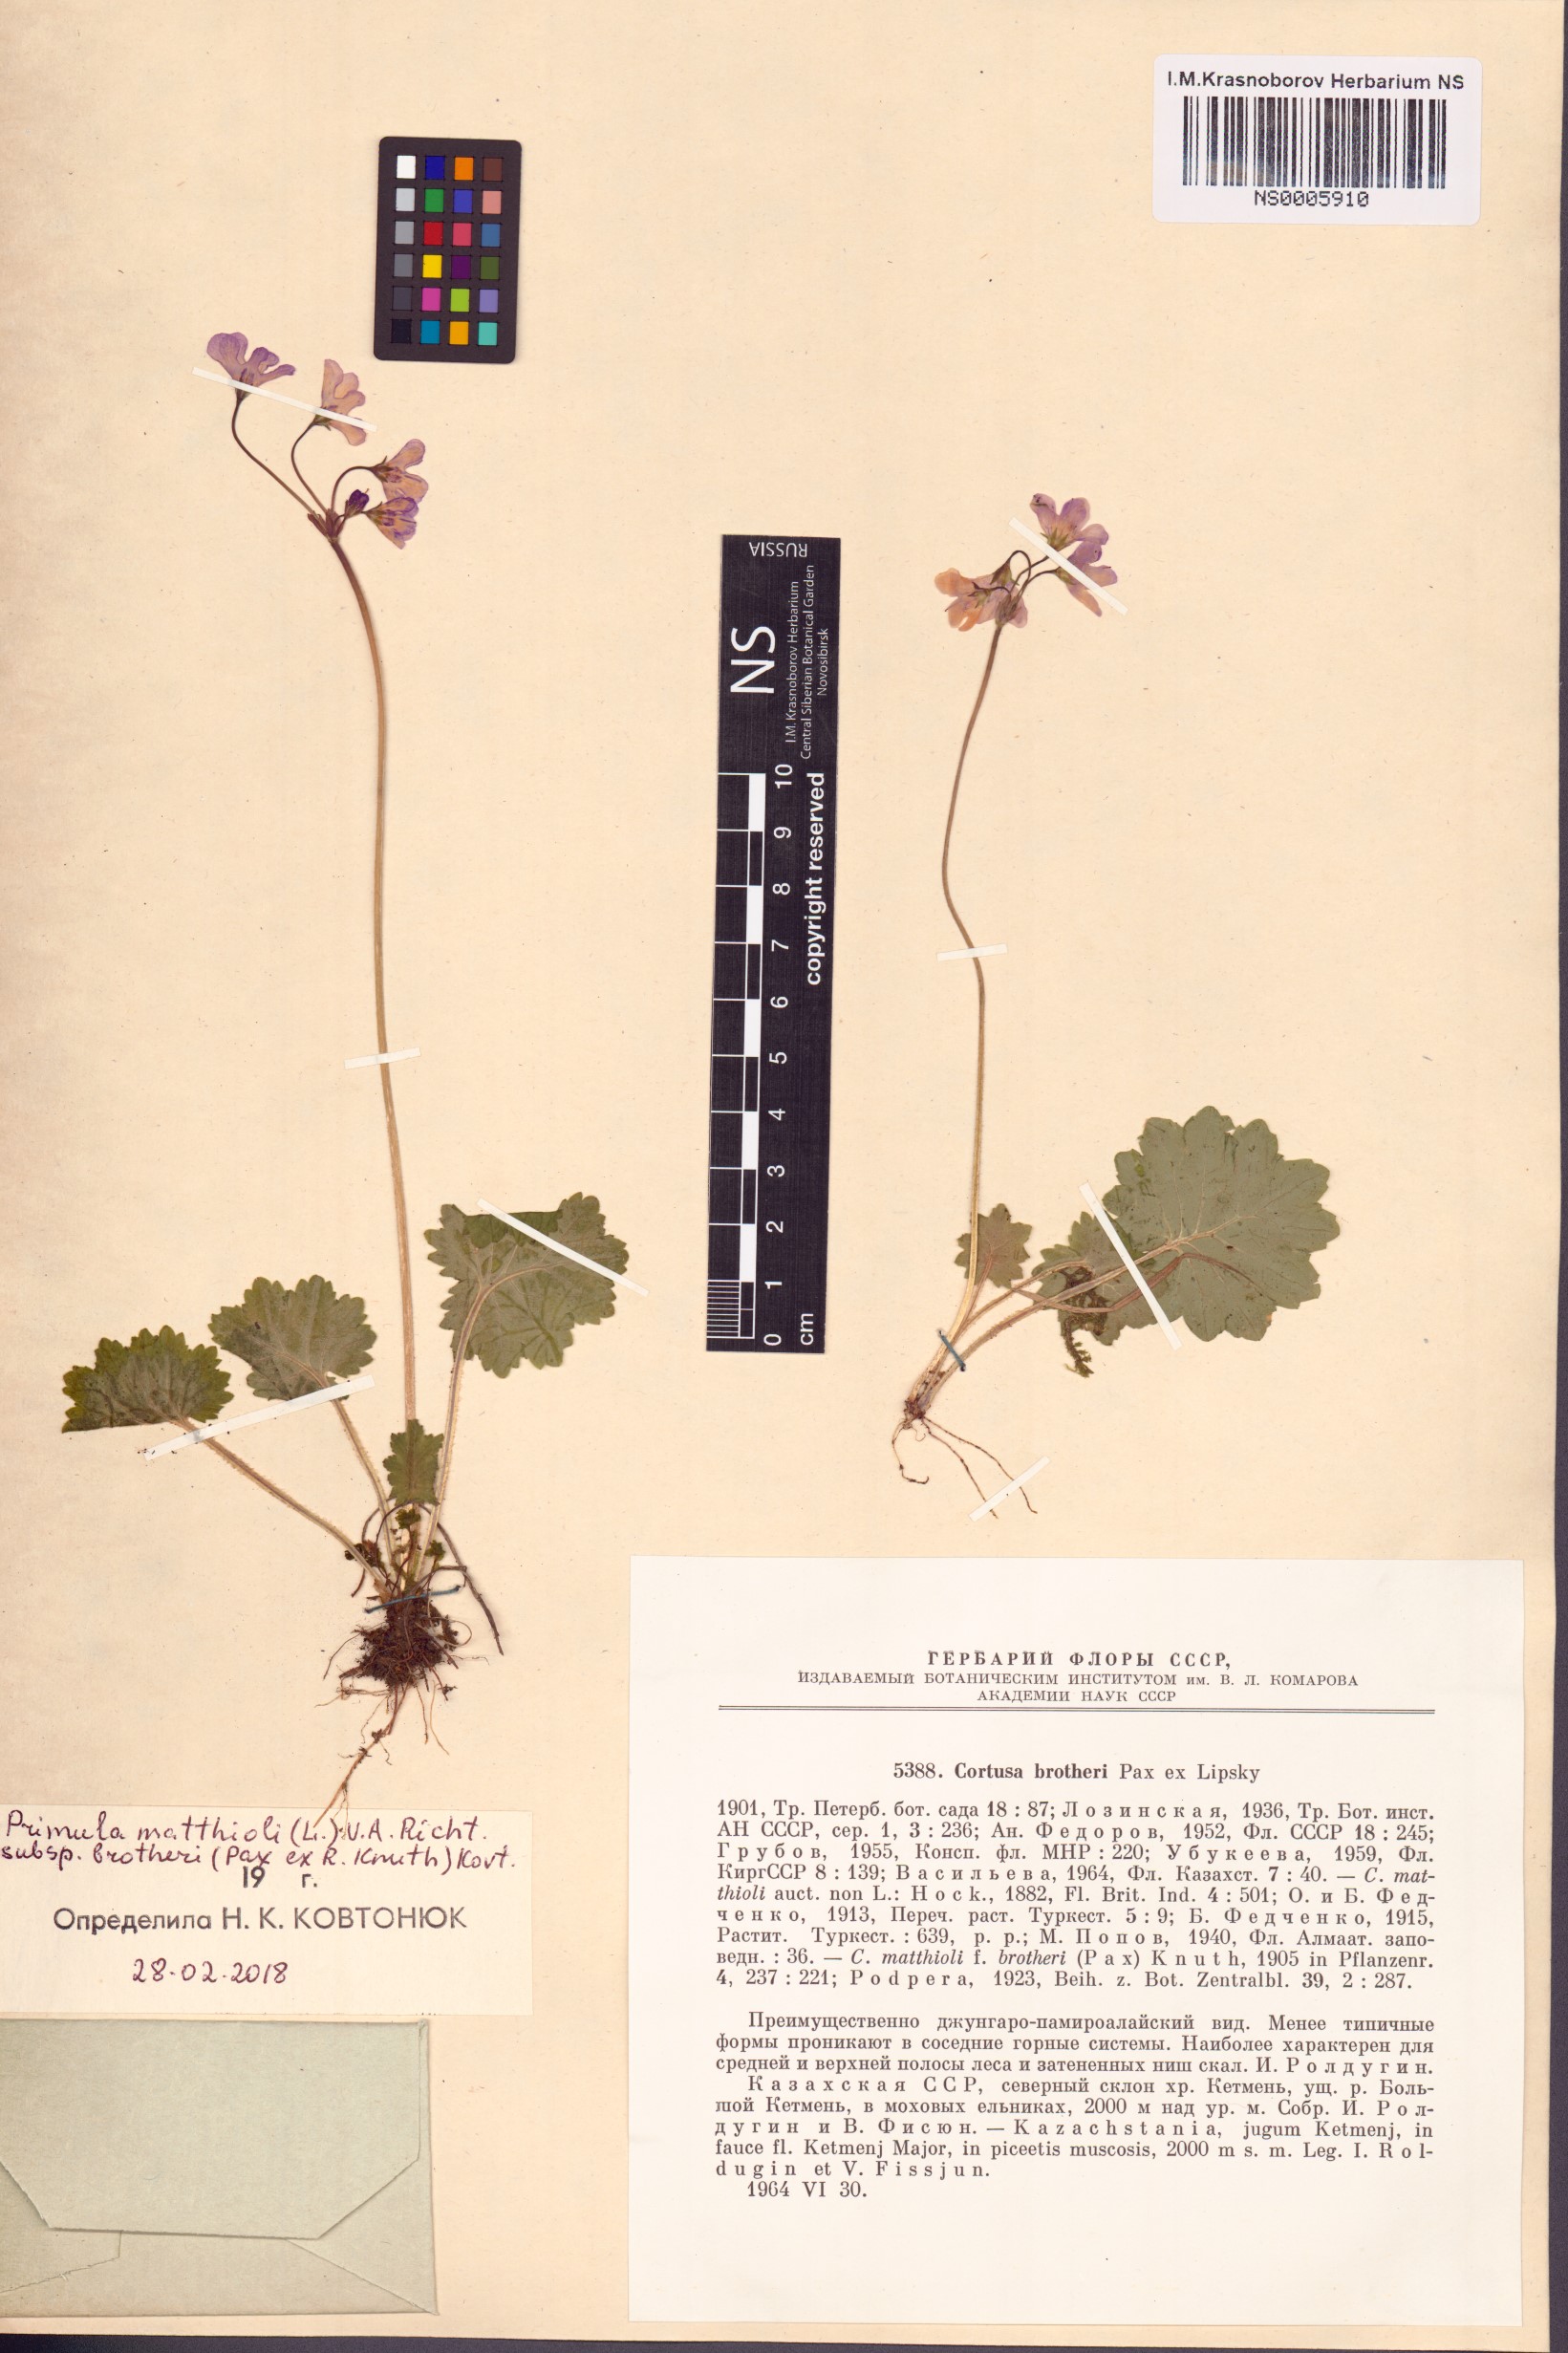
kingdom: Plantae
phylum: Tracheophyta
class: Magnoliopsida
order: Ericales
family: Primulaceae
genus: Primula
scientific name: Primula matthioli
